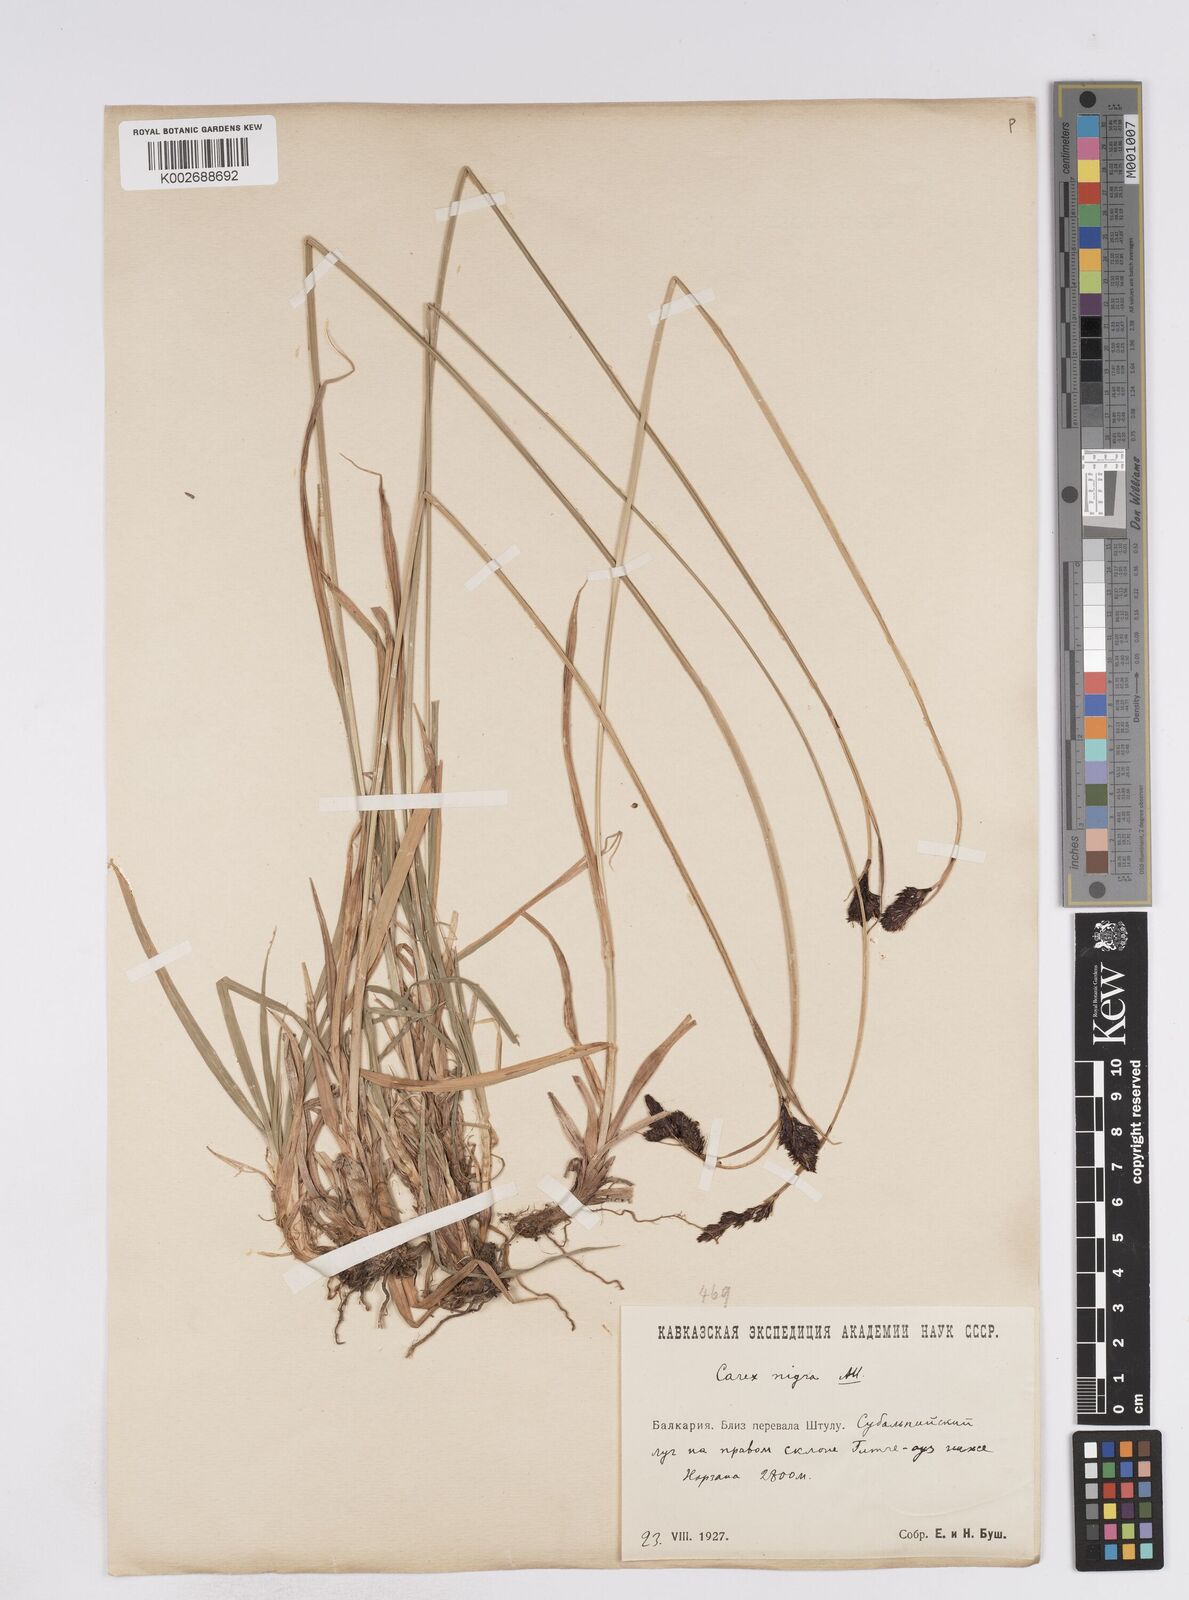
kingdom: Plantae
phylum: Tracheophyta
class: Liliopsida
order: Poales
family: Cyperaceae
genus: Carex
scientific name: Carex parviflora
